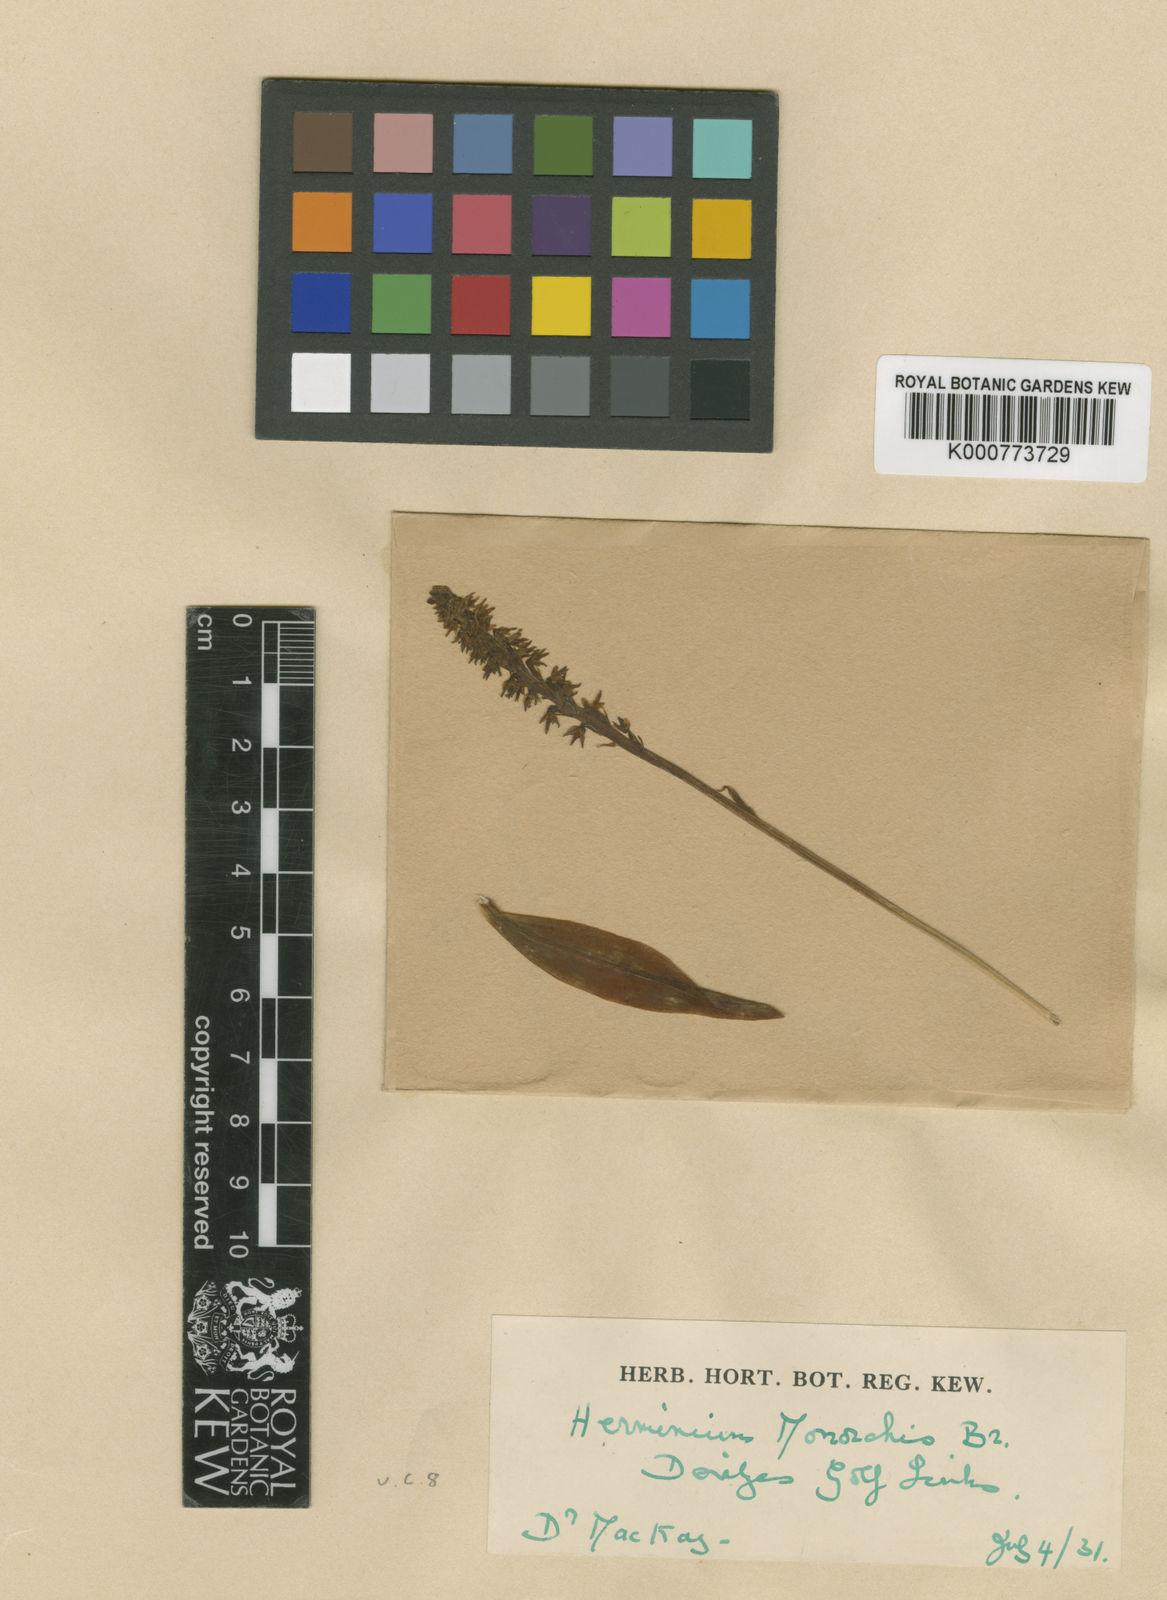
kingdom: Plantae
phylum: Tracheophyta
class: Liliopsida
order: Asparagales
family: Orchidaceae
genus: Herminium
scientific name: Herminium monorchis
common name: Musk orchid
